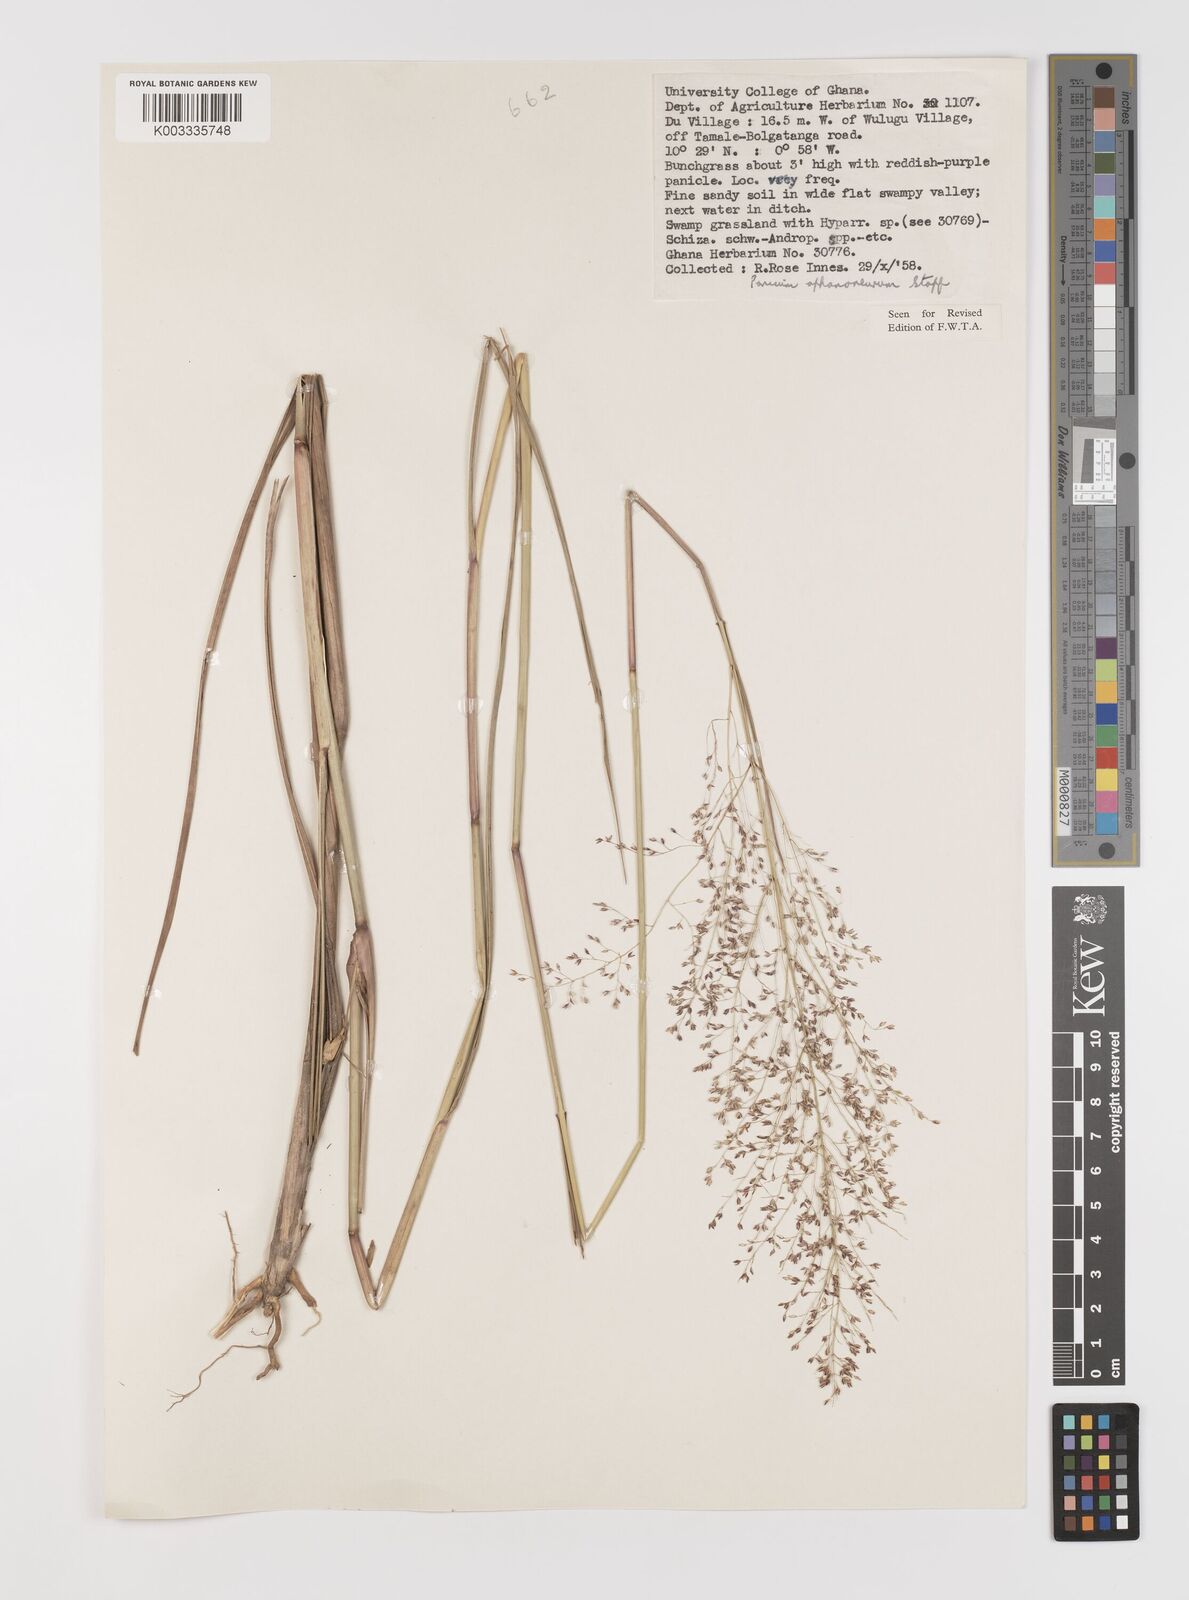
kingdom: Plantae
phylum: Tracheophyta
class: Liliopsida
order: Poales
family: Poaceae
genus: Panicum
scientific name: Panicum fluviicola
